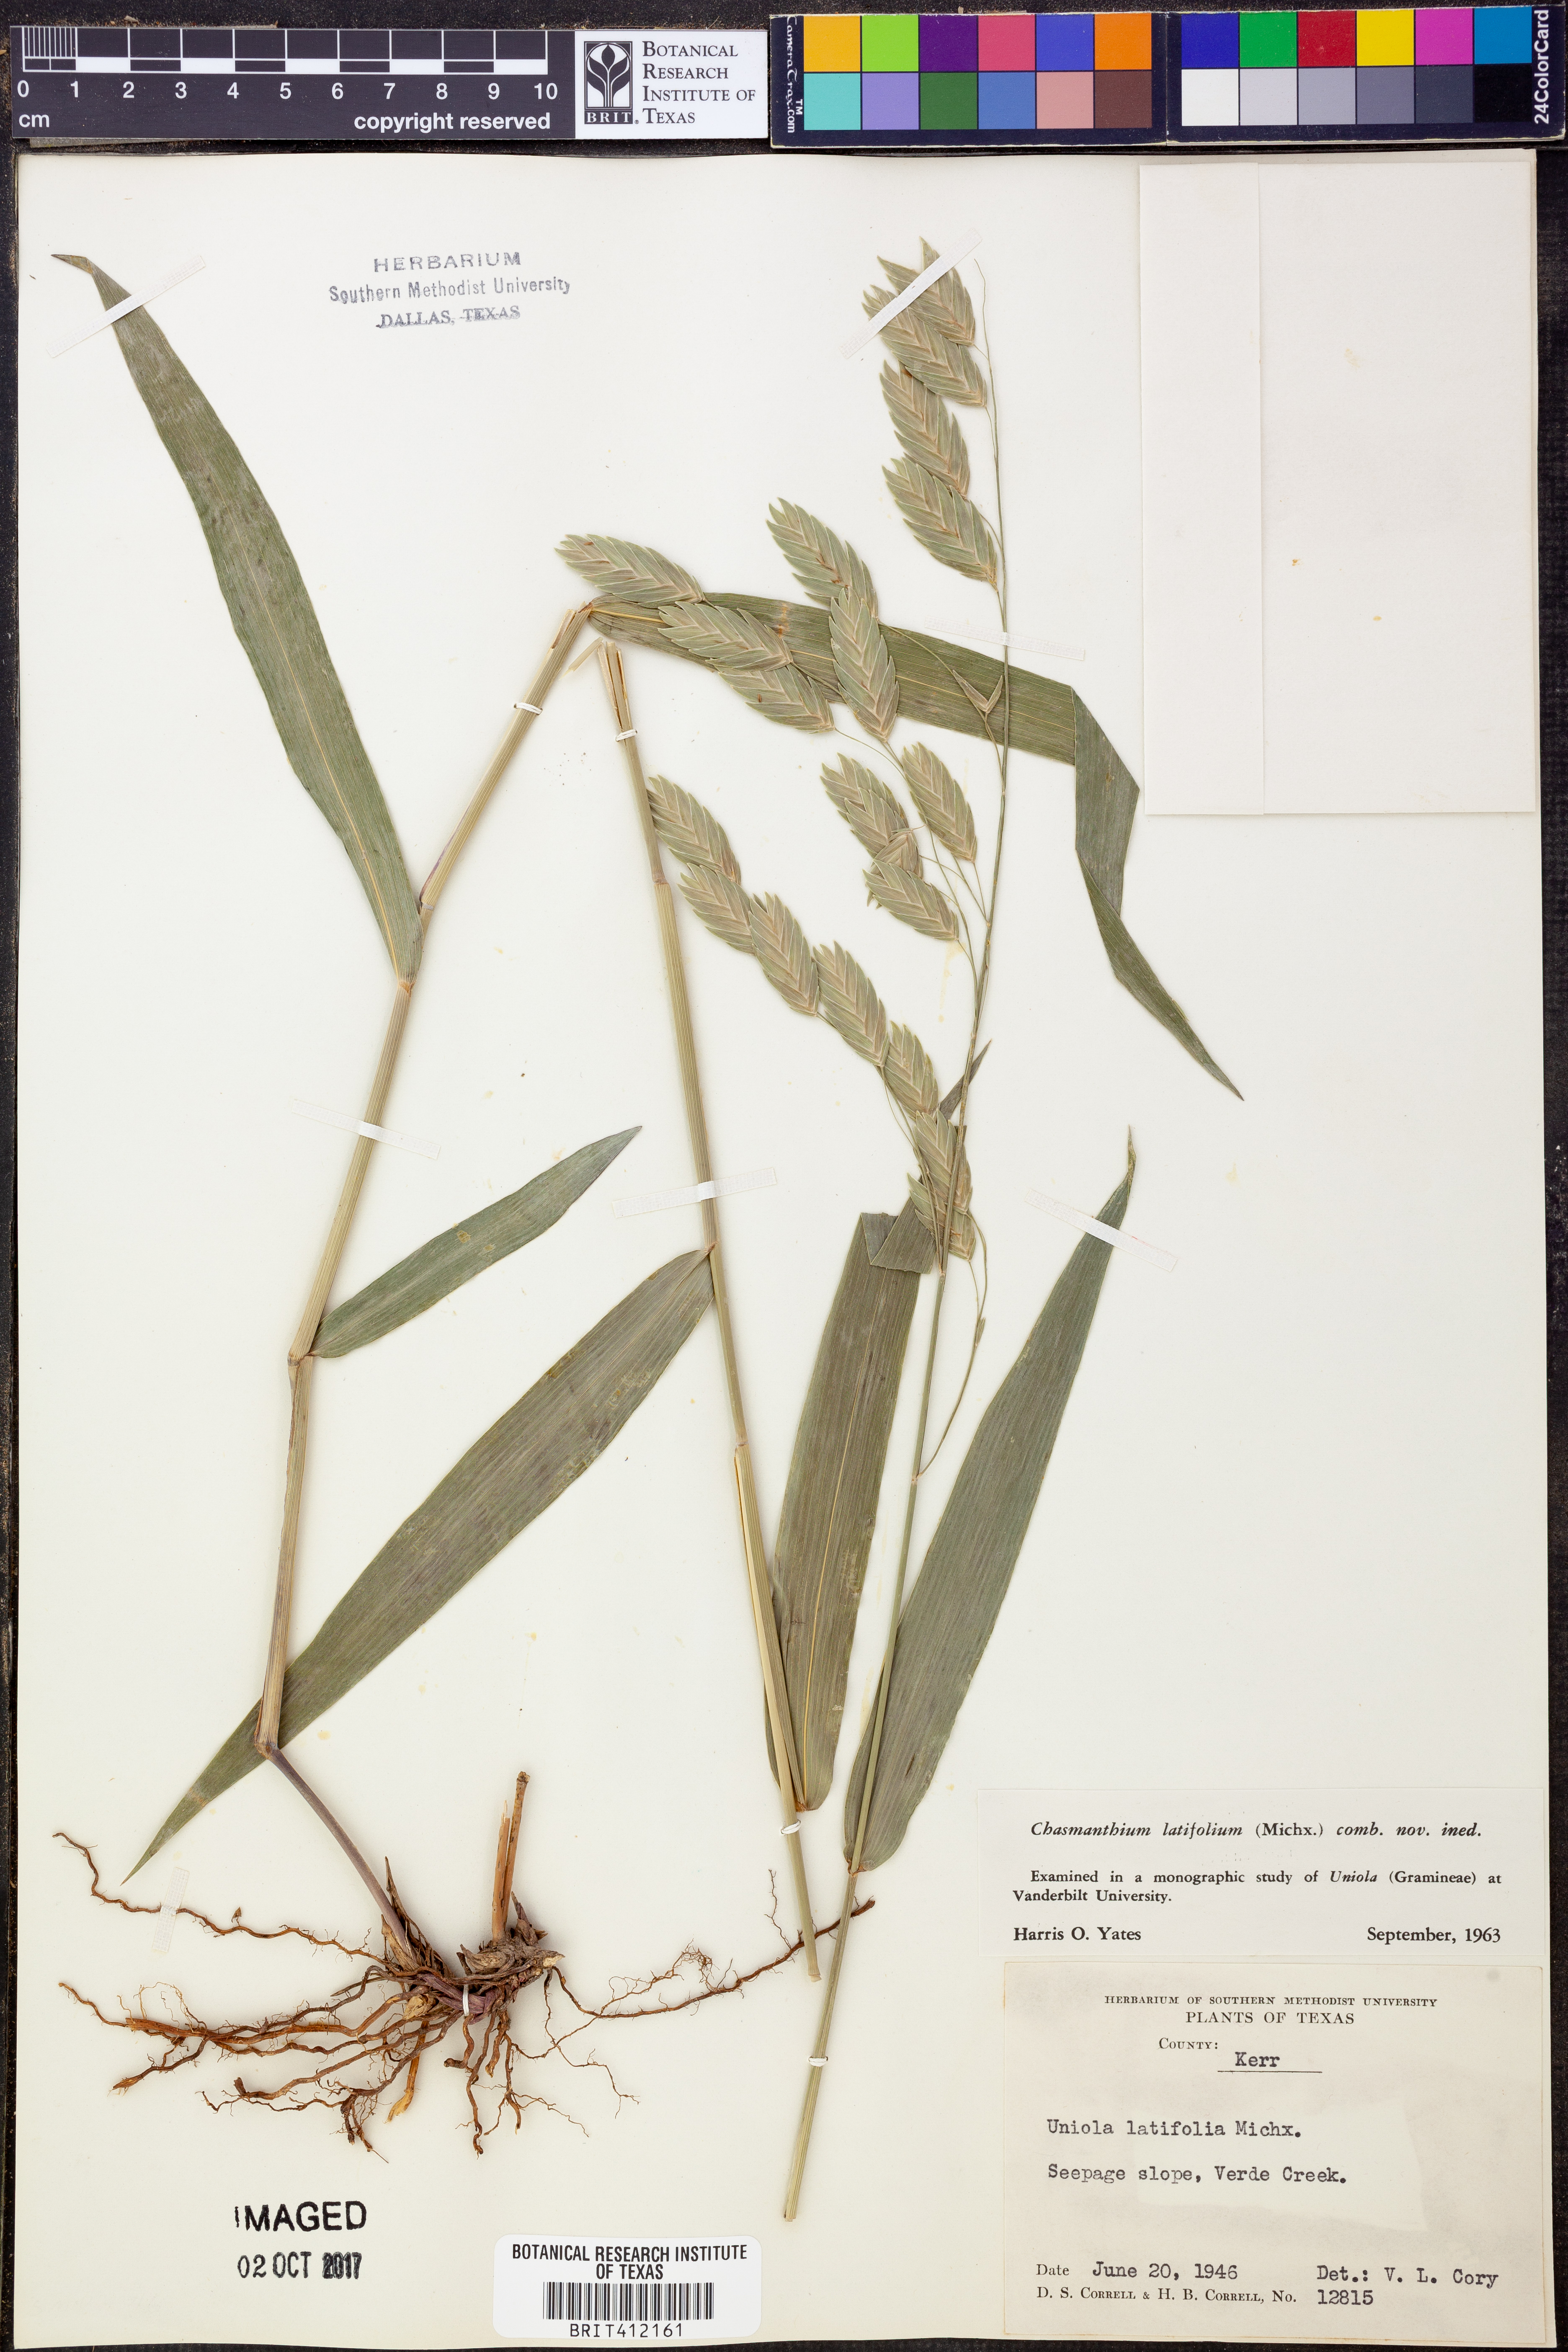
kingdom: Plantae
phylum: Tracheophyta
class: Liliopsida
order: Poales
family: Poaceae
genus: Chasmanthium
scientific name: Chasmanthium latifolium
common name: Broad-leaved chasmanthium
